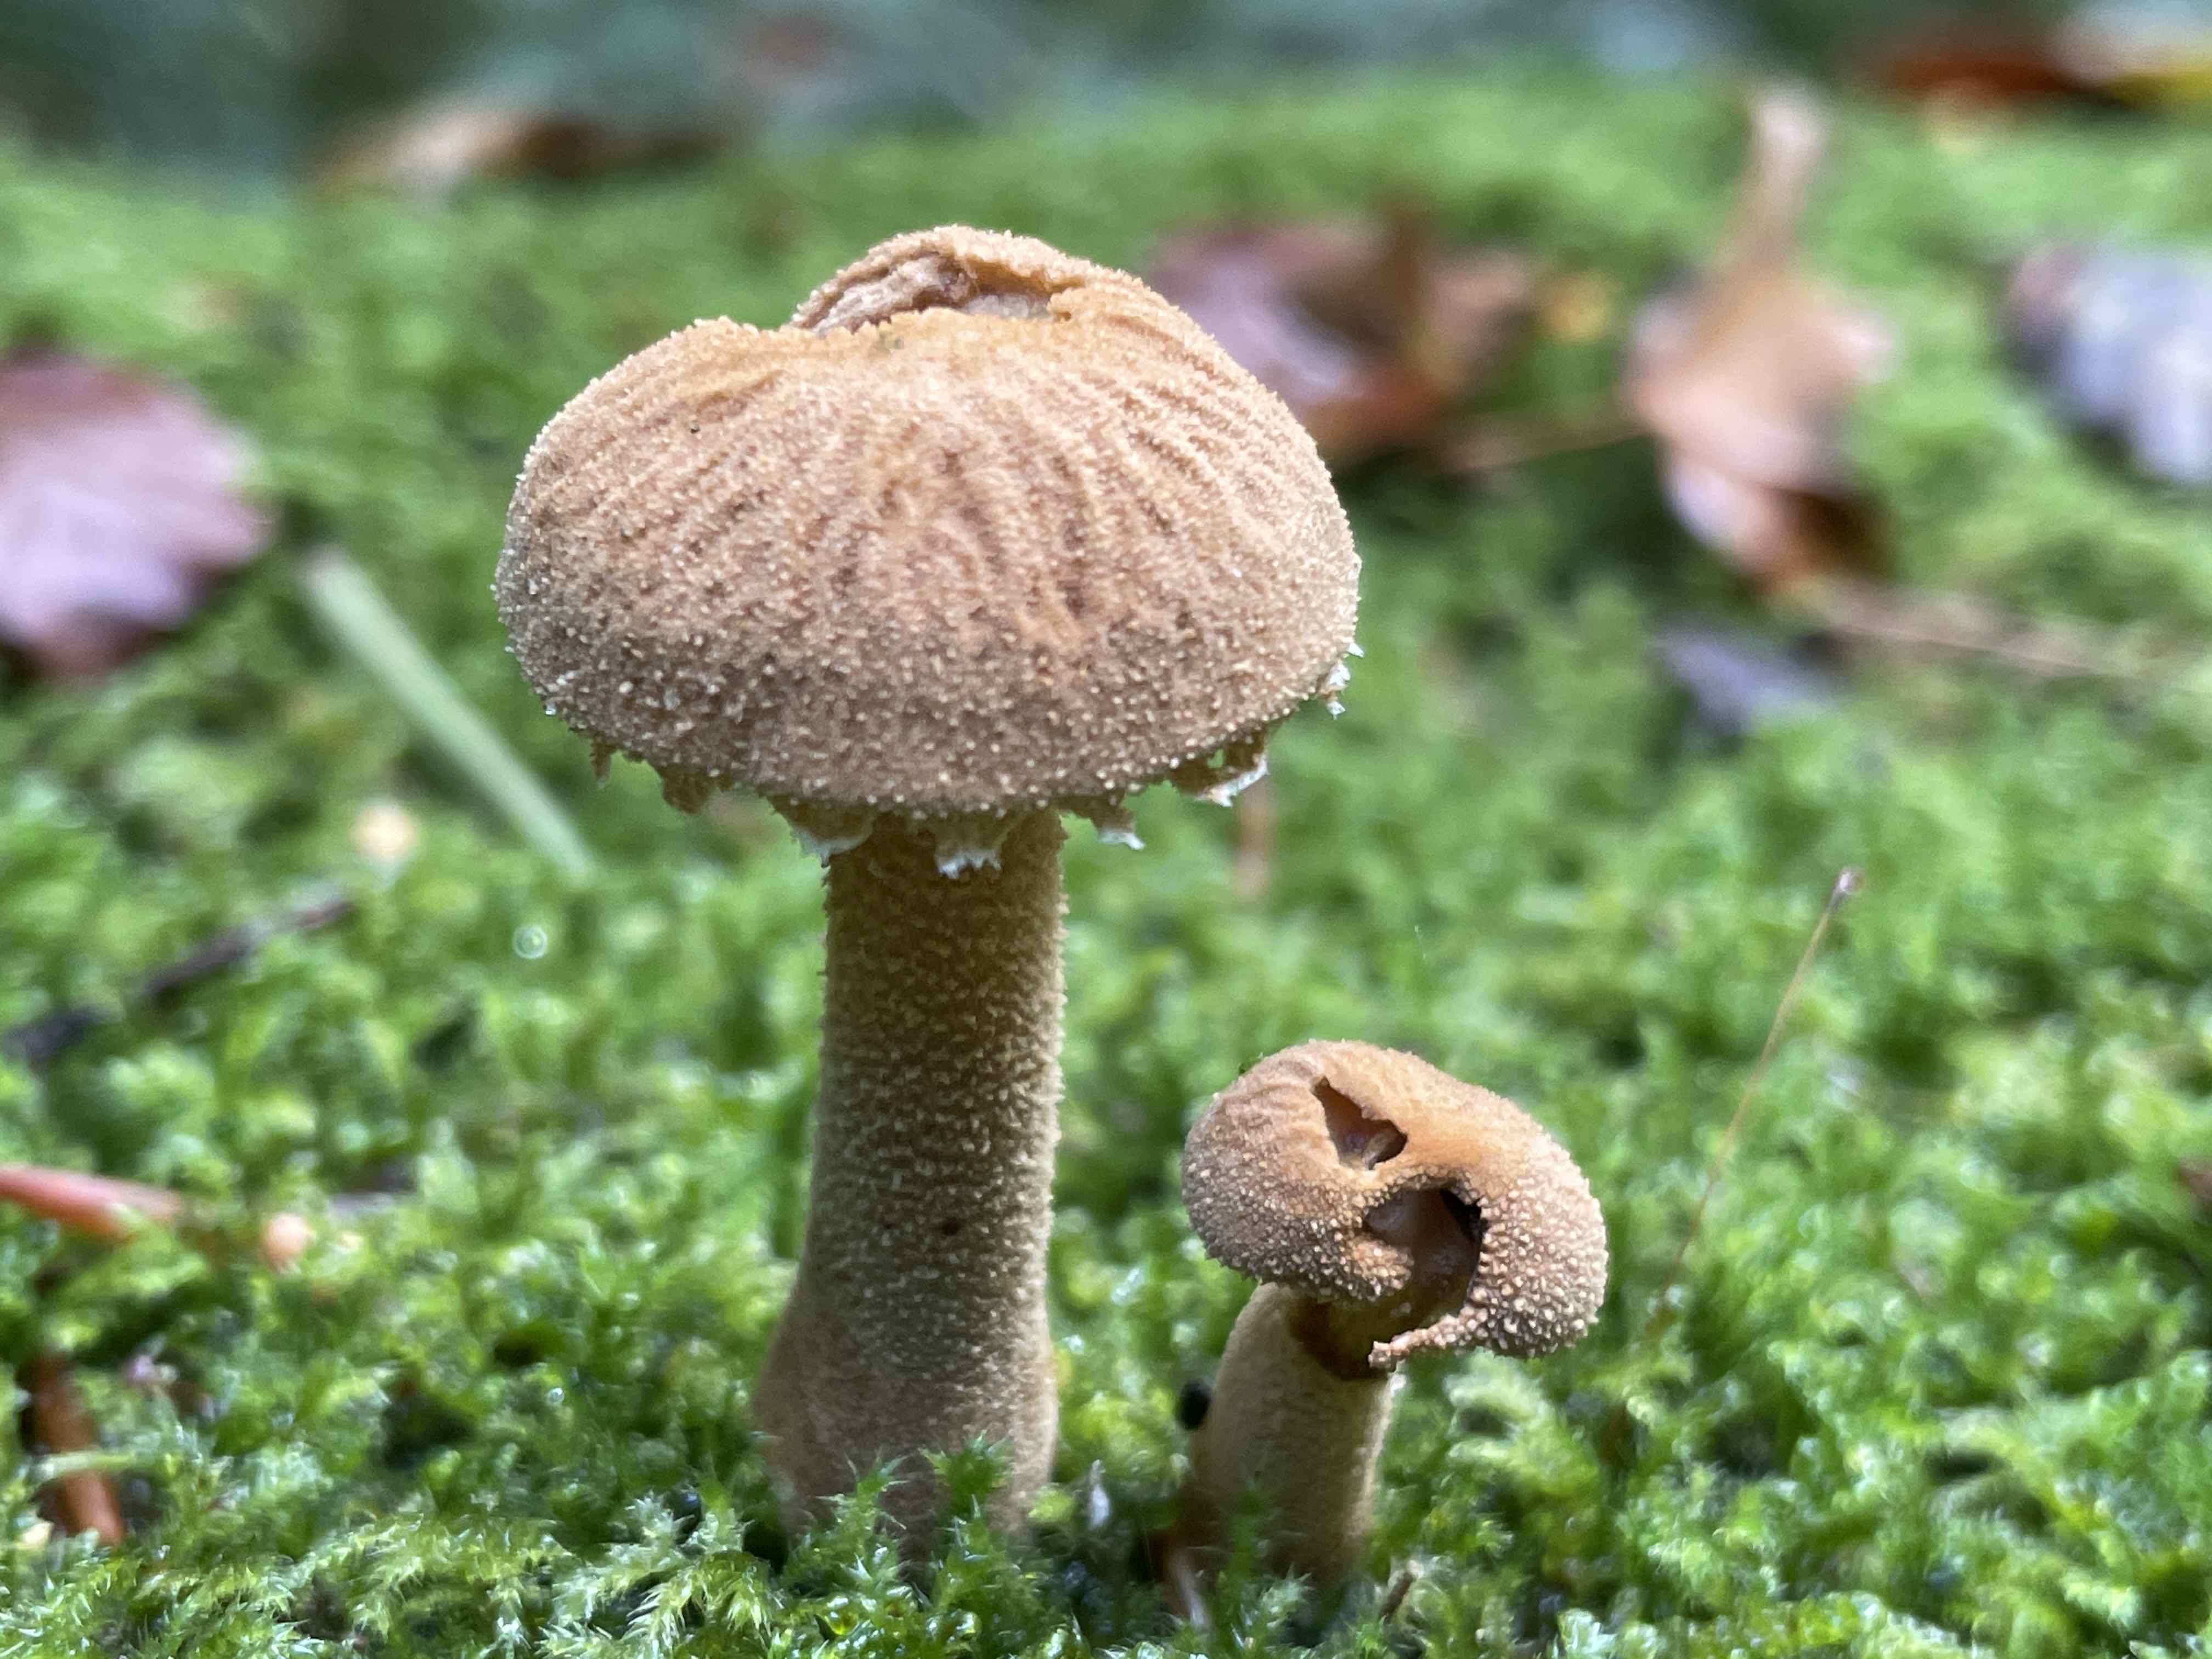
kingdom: Fungi
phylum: Basidiomycota
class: Agaricomycetes
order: Agaricales
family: Tricholomataceae
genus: Cystoderma
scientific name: Cystoderma amianthinum
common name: okkergul grynhat
